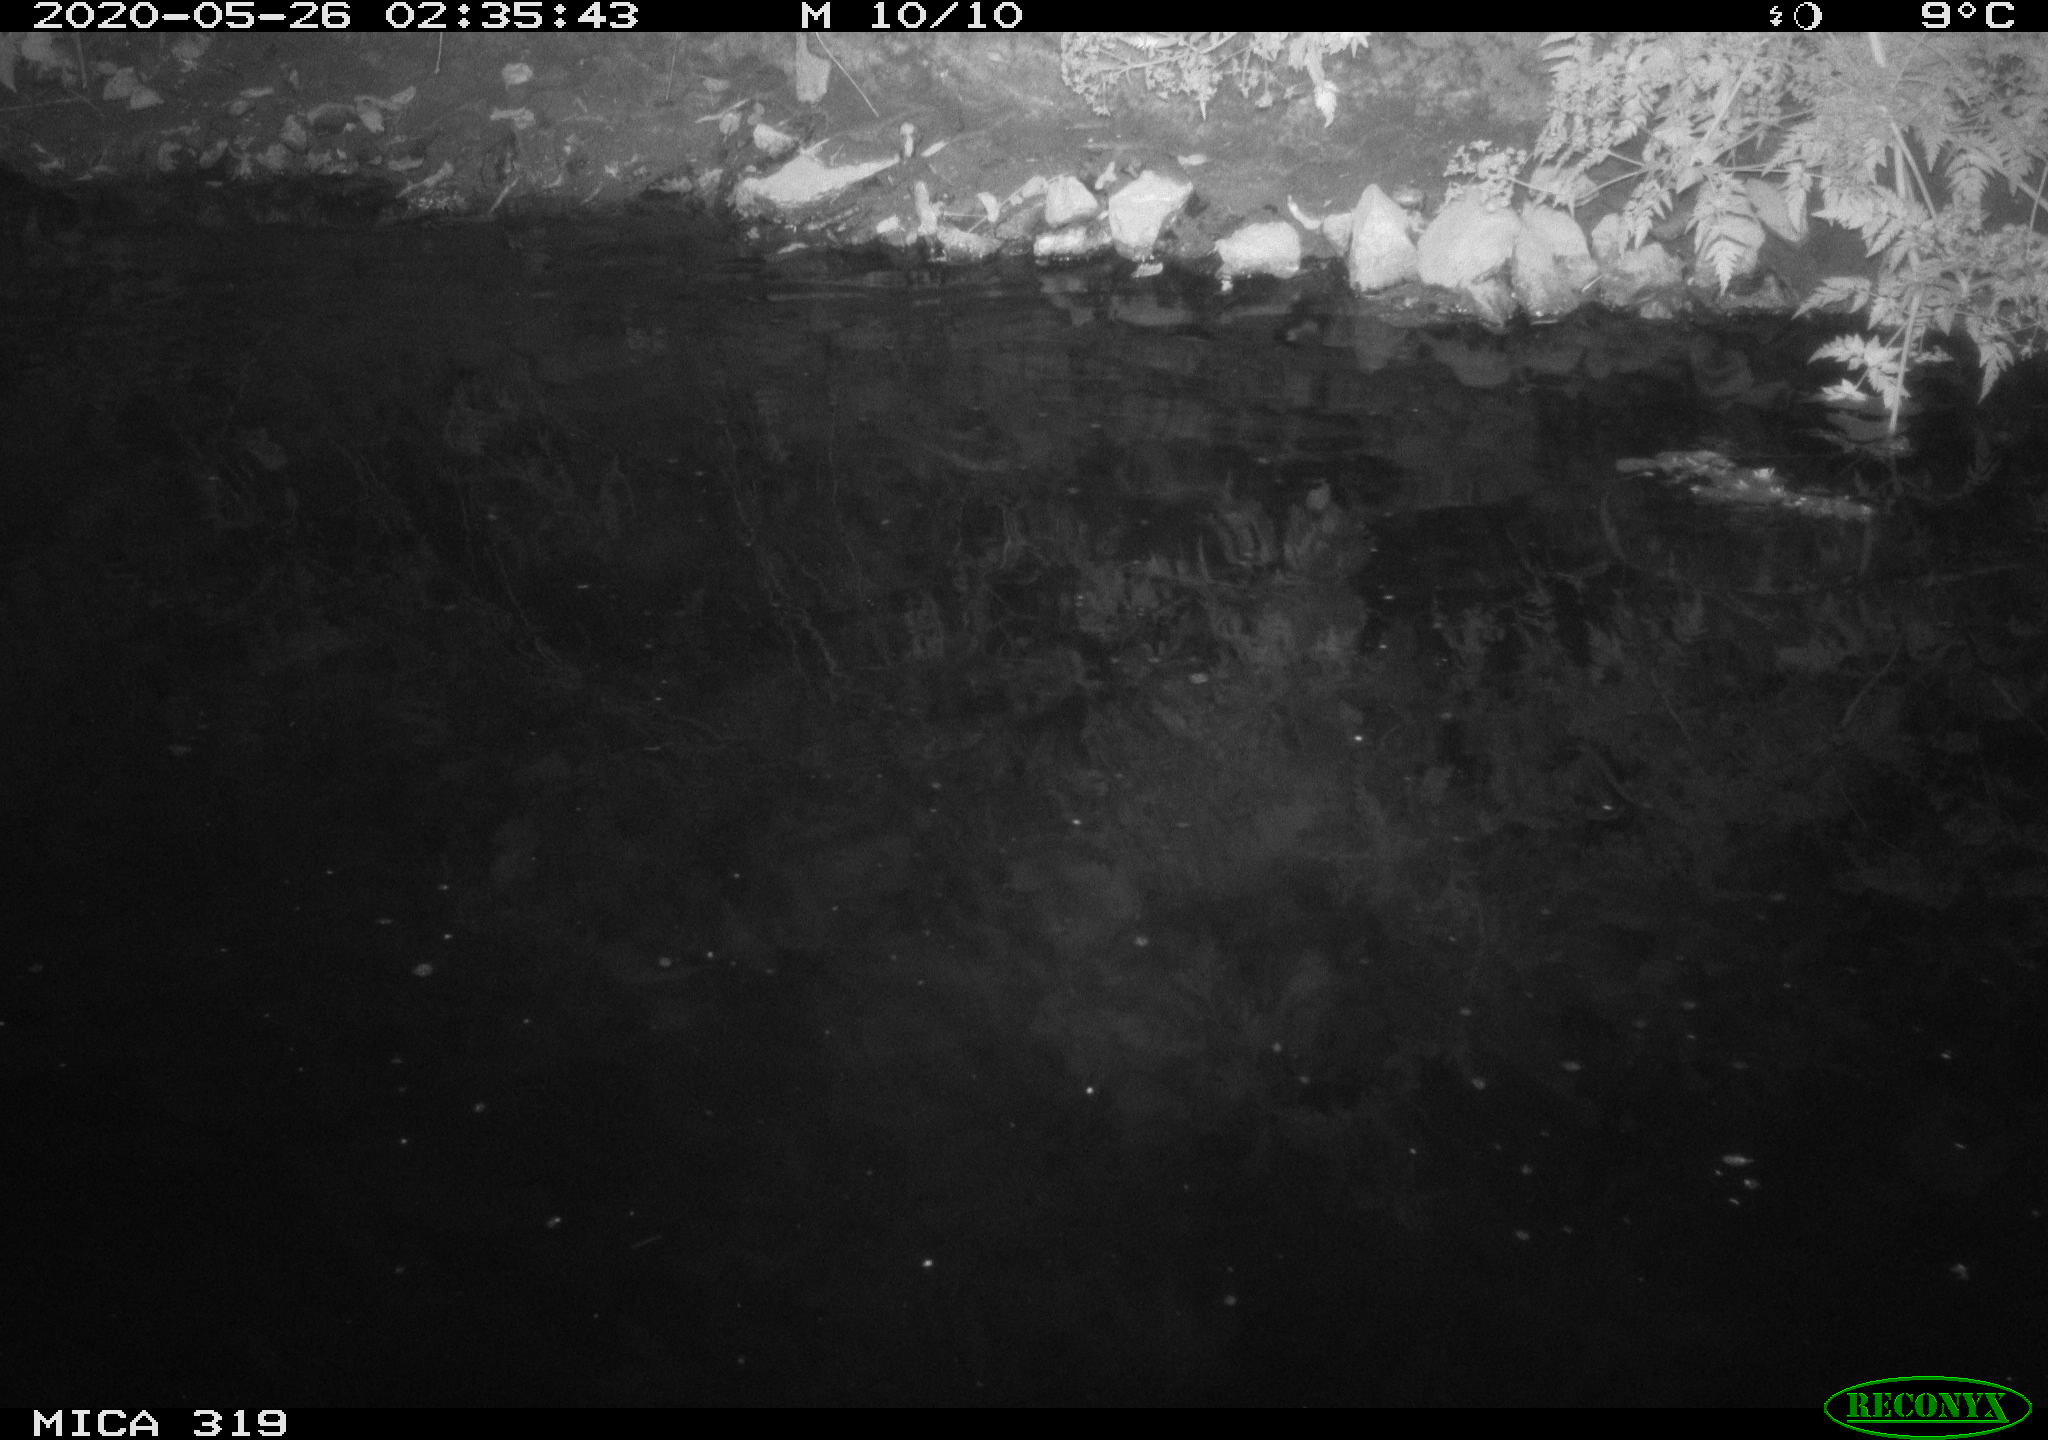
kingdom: Animalia
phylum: Chordata
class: Aves
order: Anseriformes
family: Anatidae
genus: Anas
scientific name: Anas platyrhynchos
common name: Mallard
